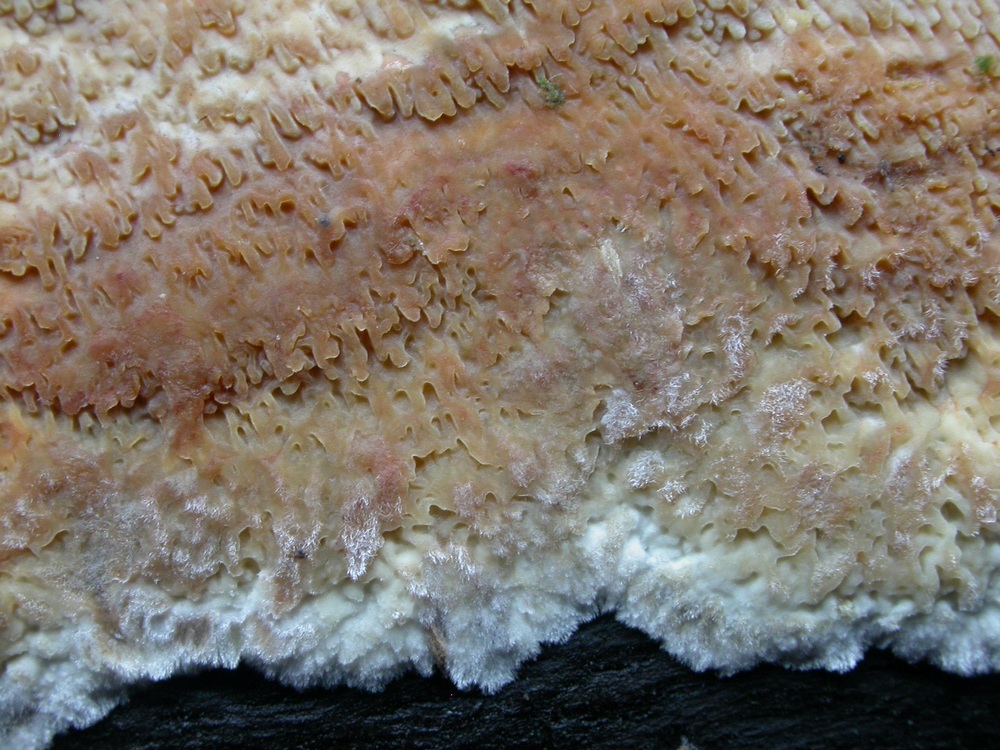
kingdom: Fungi
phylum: Basidiomycota
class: Agaricomycetes
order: Polyporales
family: Meruliaceae
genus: Phlebia
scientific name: Phlebia rufa
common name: ege-åresvamp
